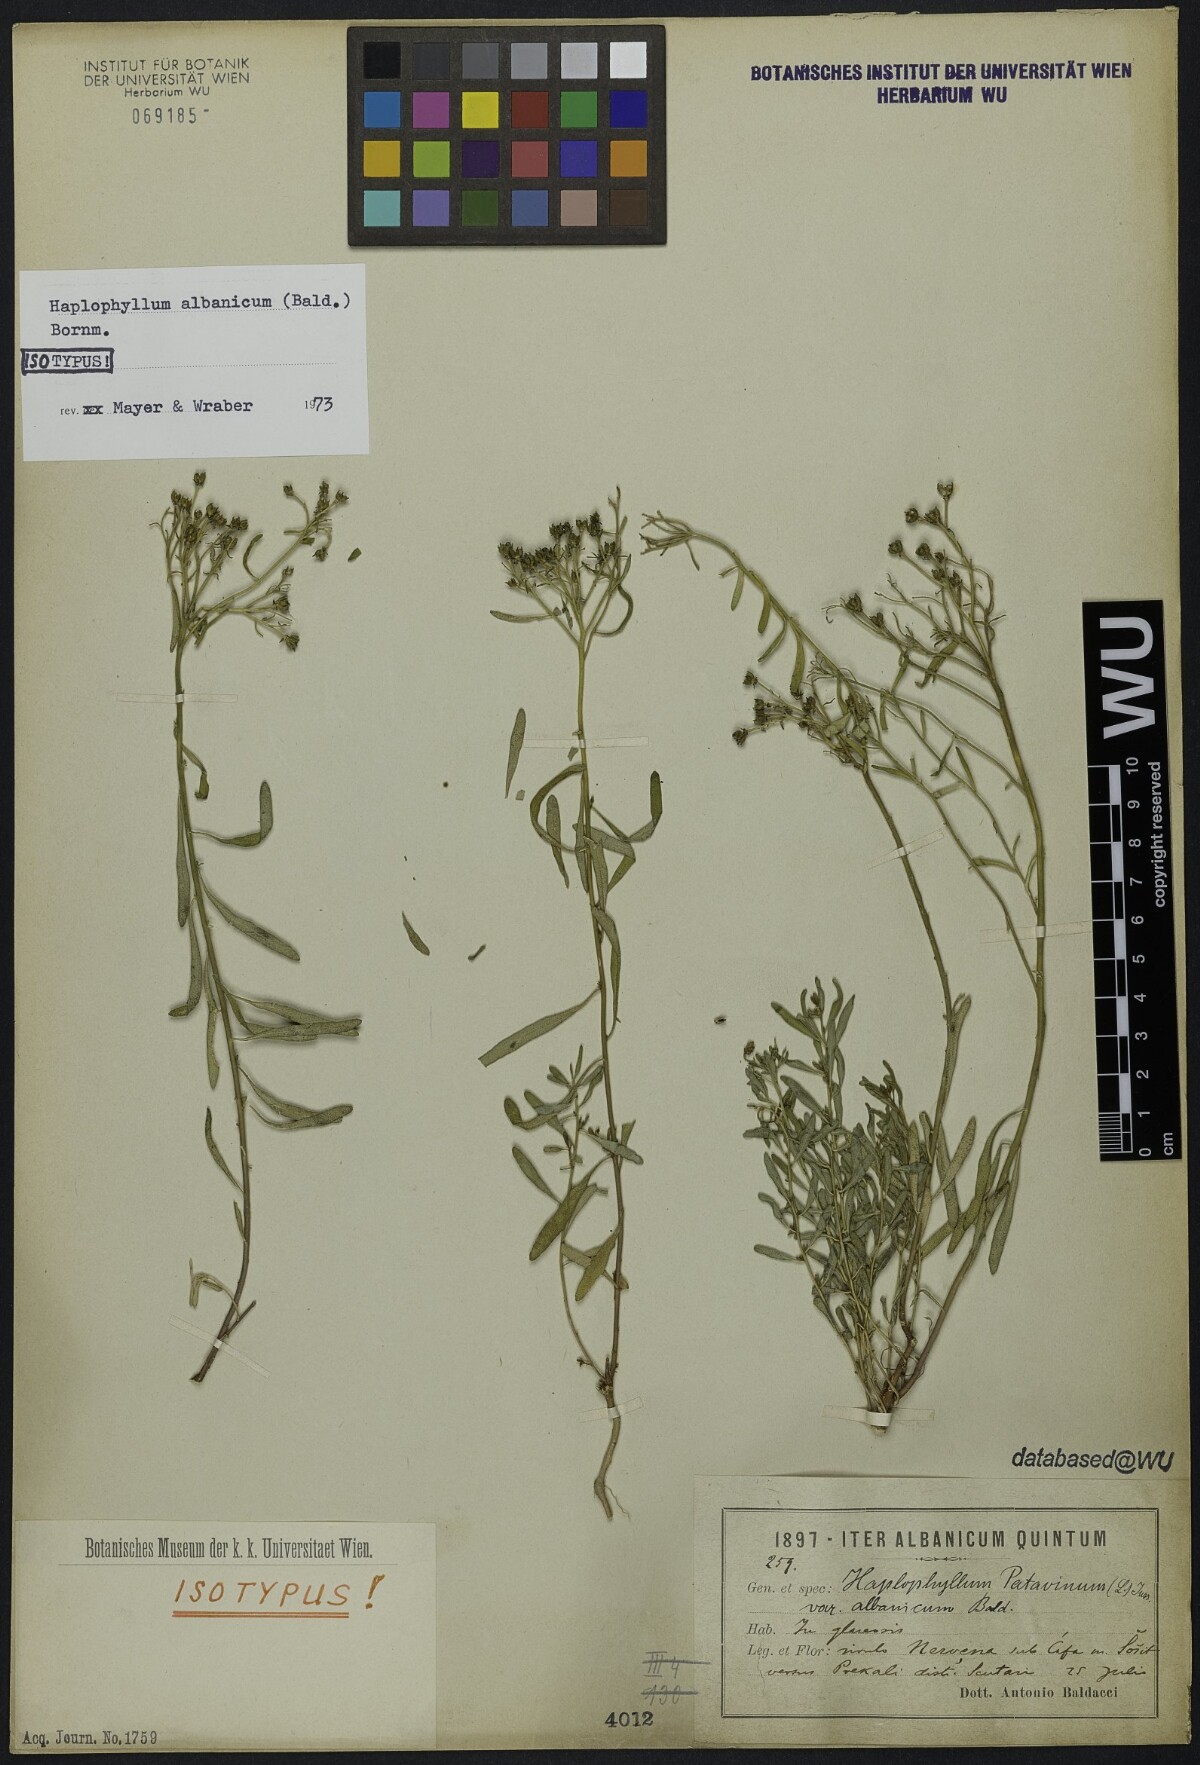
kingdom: Plantae
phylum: Tracheophyta
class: Magnoliopsida
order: Sapindales
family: Rutaceae
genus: Haplophyllum
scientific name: Haplophyllum boissieranum
